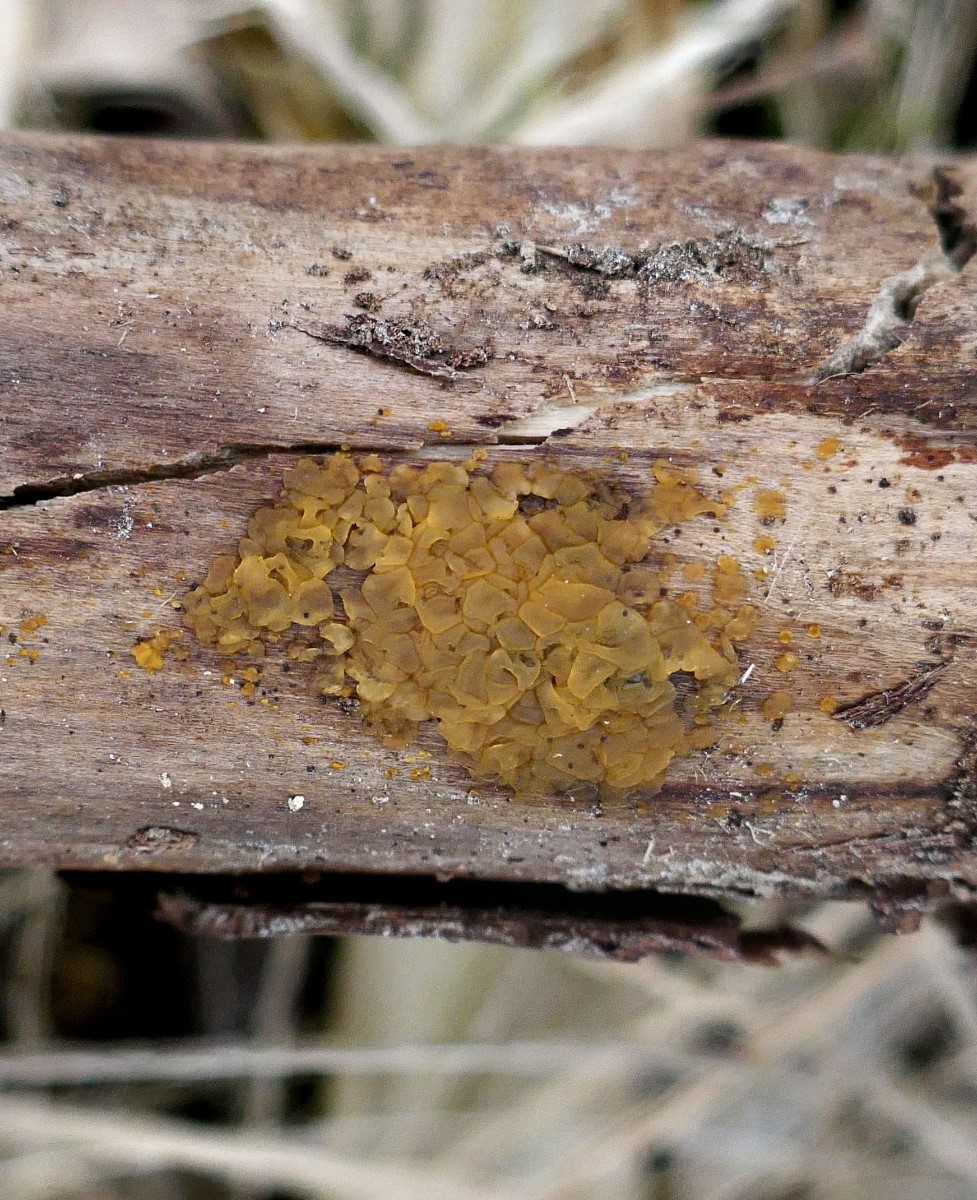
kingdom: Fungi
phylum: Basidiomycota
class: Dacrymycetes
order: Dacrymycetales
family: Dacrymycetaceae
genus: Dacrymyces
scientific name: Dacrymyces lacrymalis
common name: rynket tåresvamp
